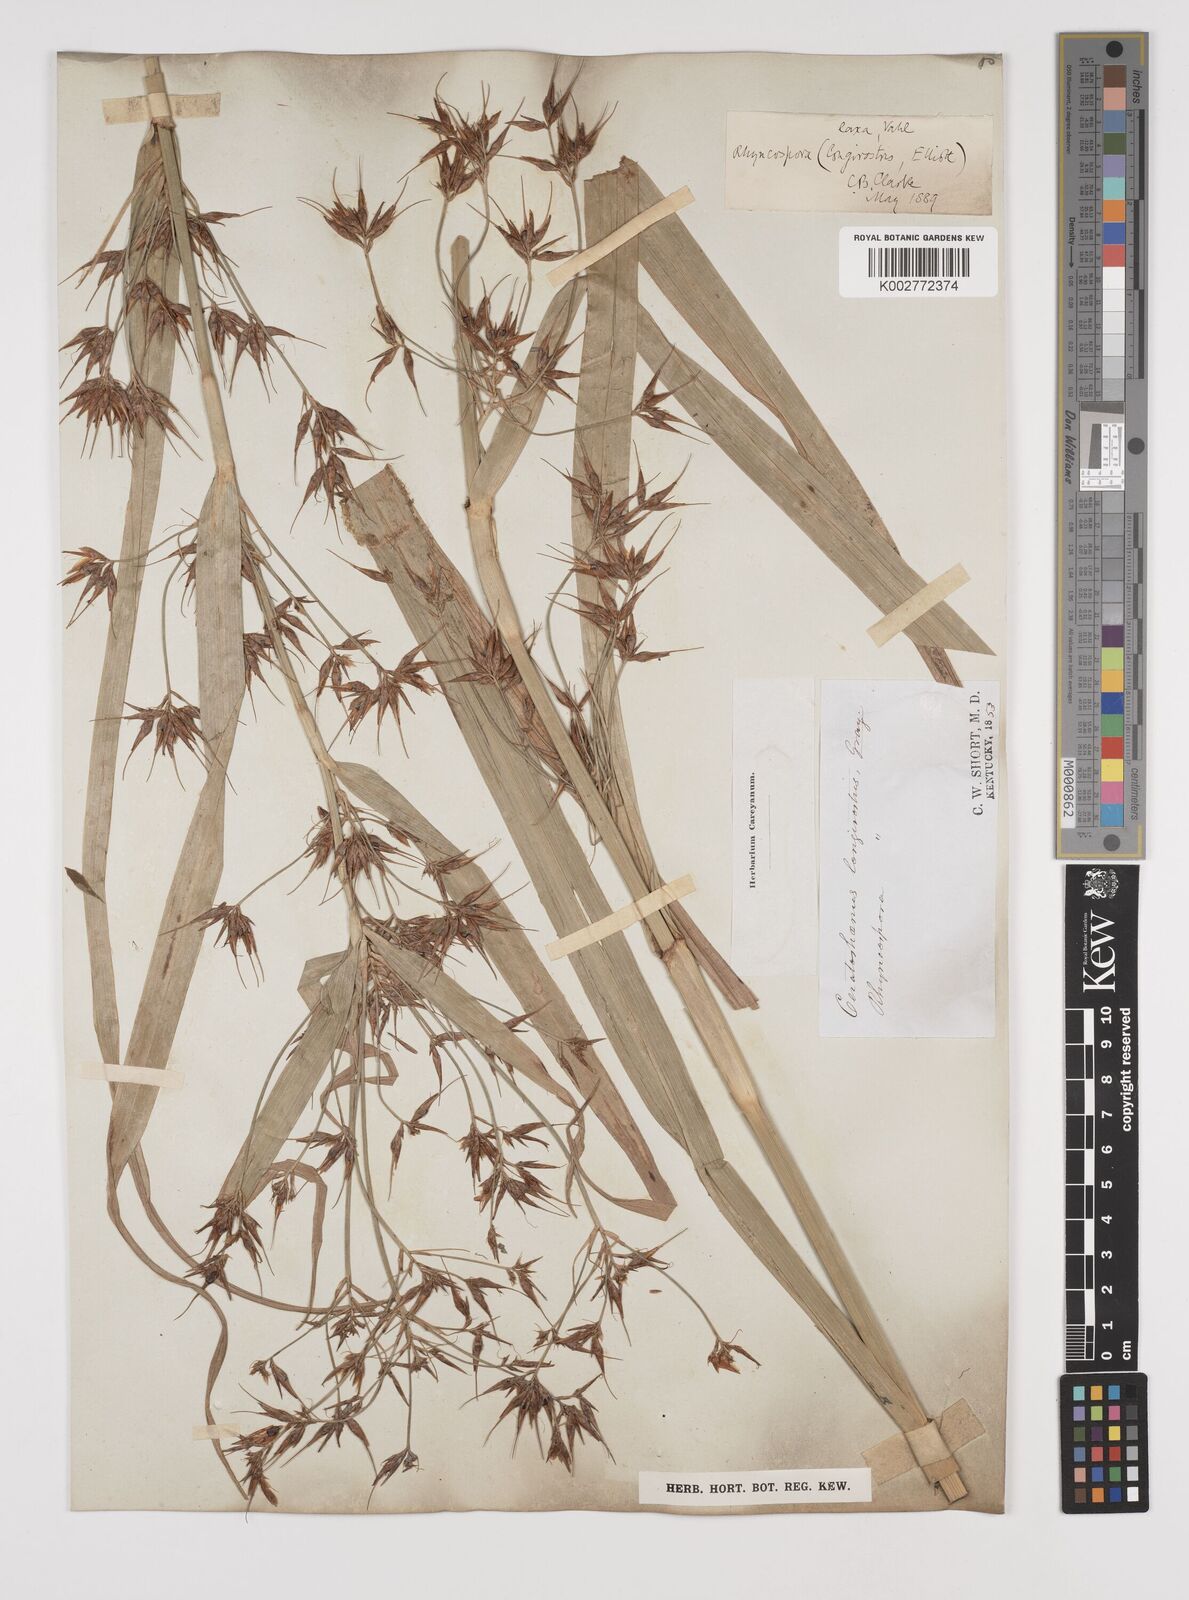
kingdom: Plantae
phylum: Tracheophyta
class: Liliopsida
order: Poales
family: Cyperaceae
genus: Rhynchospora
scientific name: Rhynchospora corniculata
